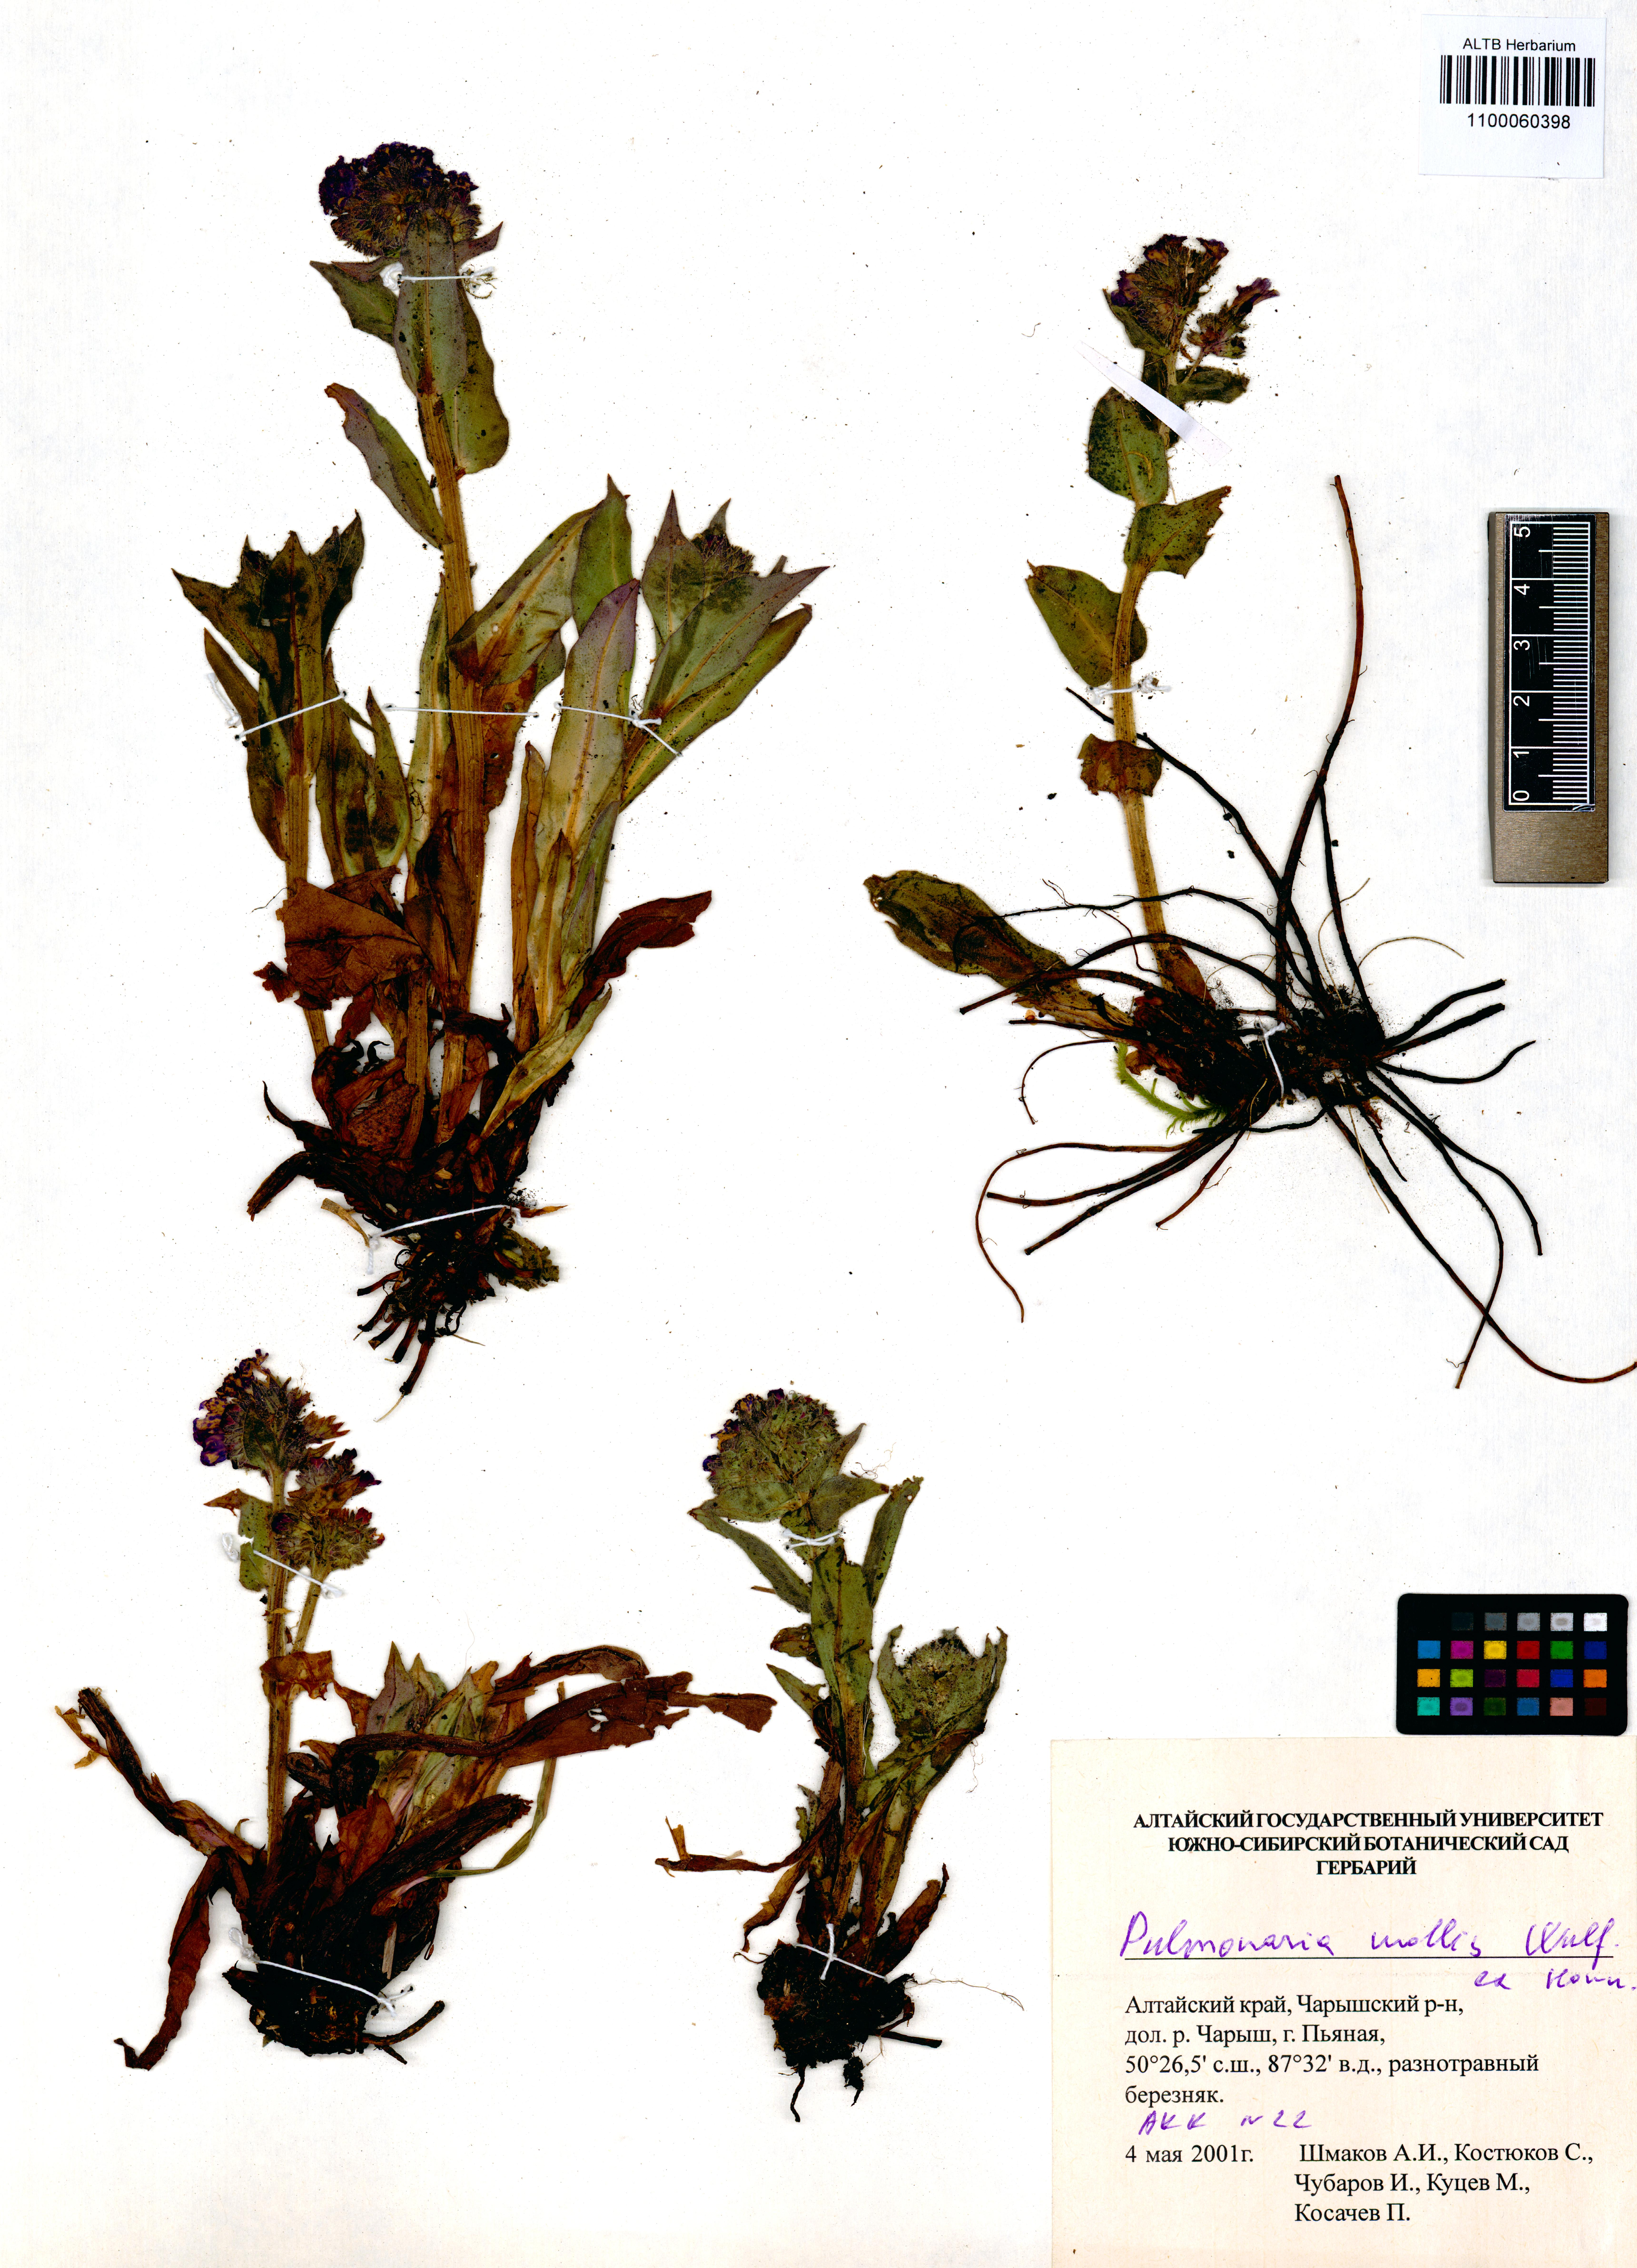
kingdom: Plantae
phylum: Tracheophyta
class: Magnoliopsida
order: Boraginales
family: Boraginaceae
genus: Pulmonaria
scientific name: Pulmonaria mollis
